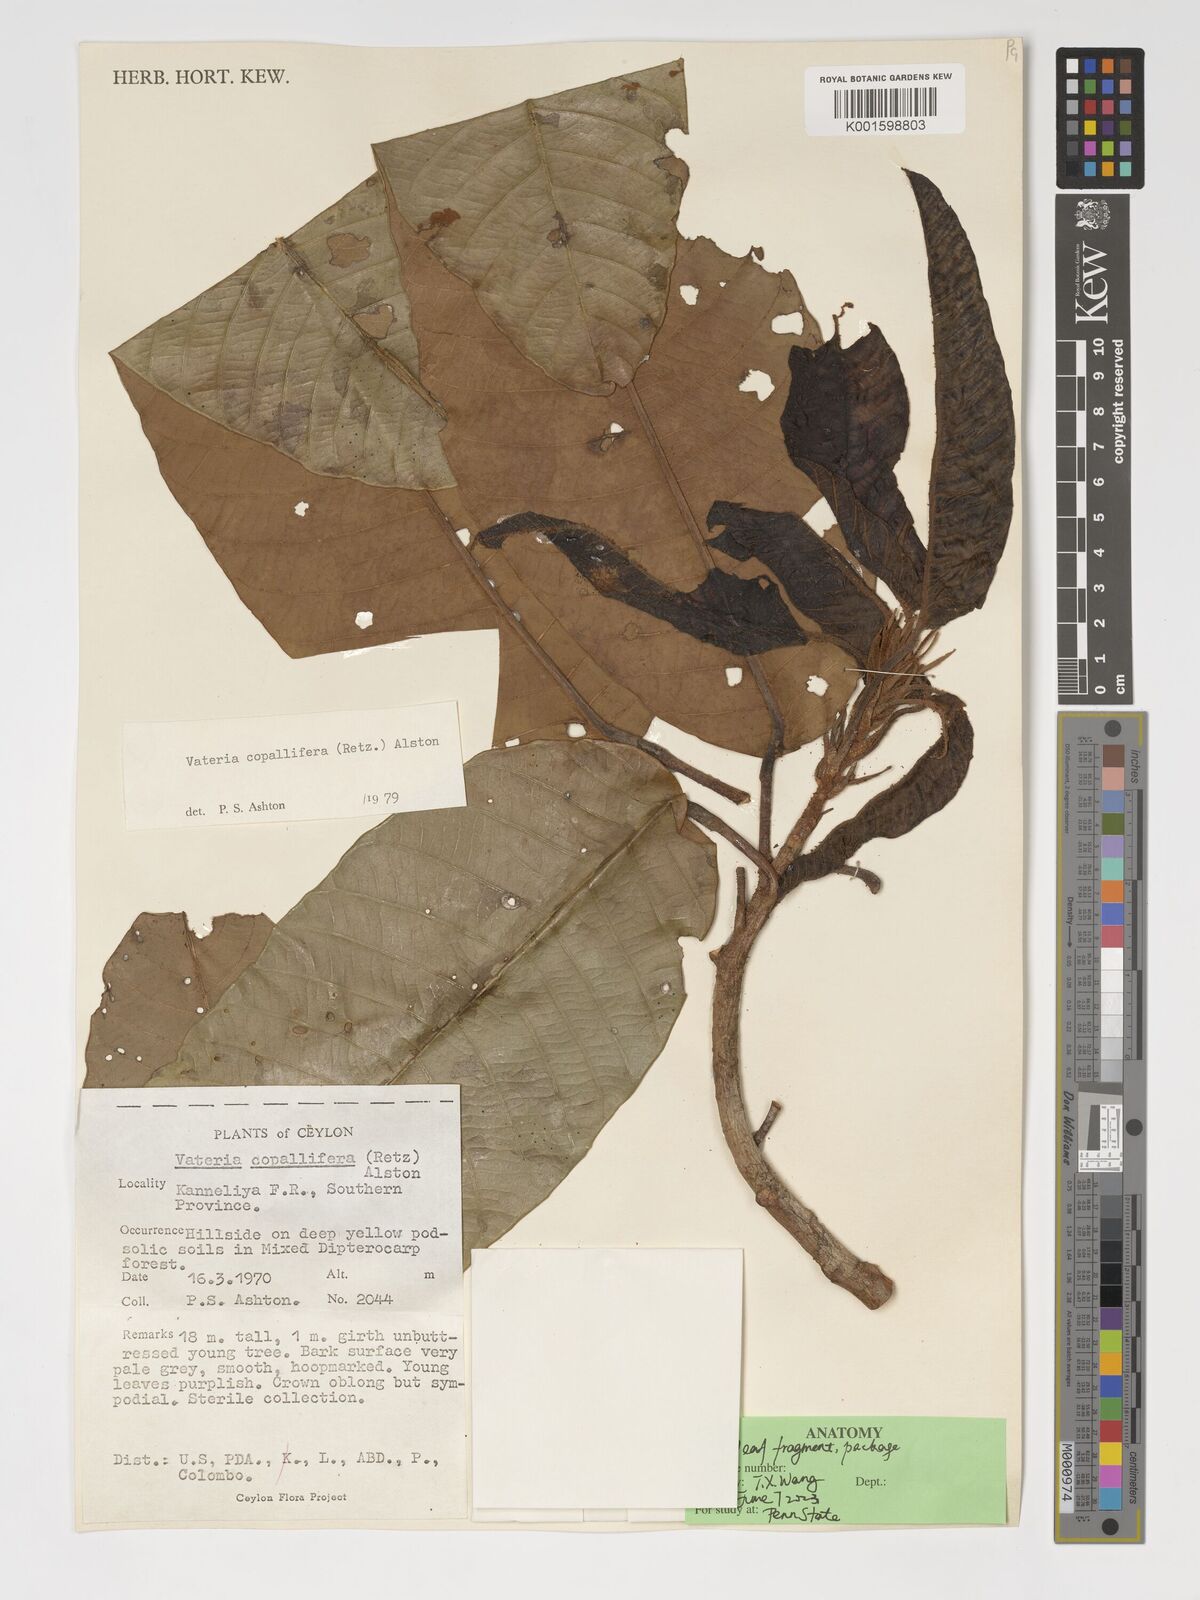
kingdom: Plantae
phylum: Tracheophyta
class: Magnoliopsida
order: Malvales
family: Dipterocarpaceae
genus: Vateria
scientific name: Vateria copallifera
